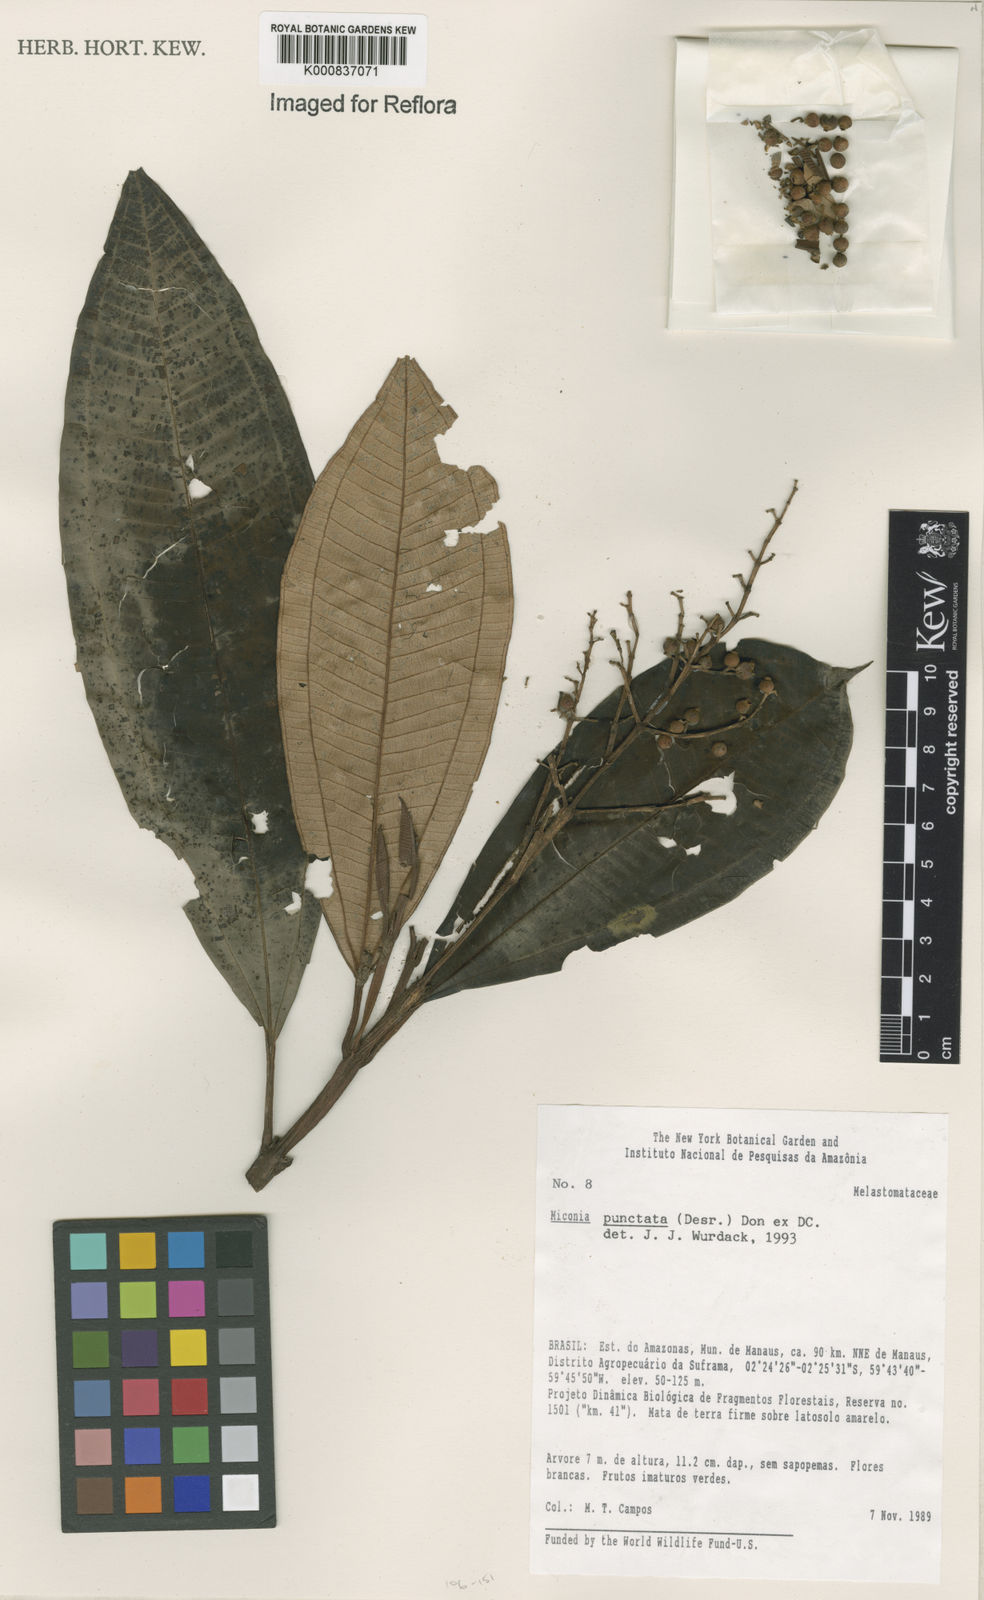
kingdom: Plantae
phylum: Tracheophyta
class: Magnoliopsida
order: Myrtales
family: Melastomataceae
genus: Miconia
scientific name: Miconia punctata
